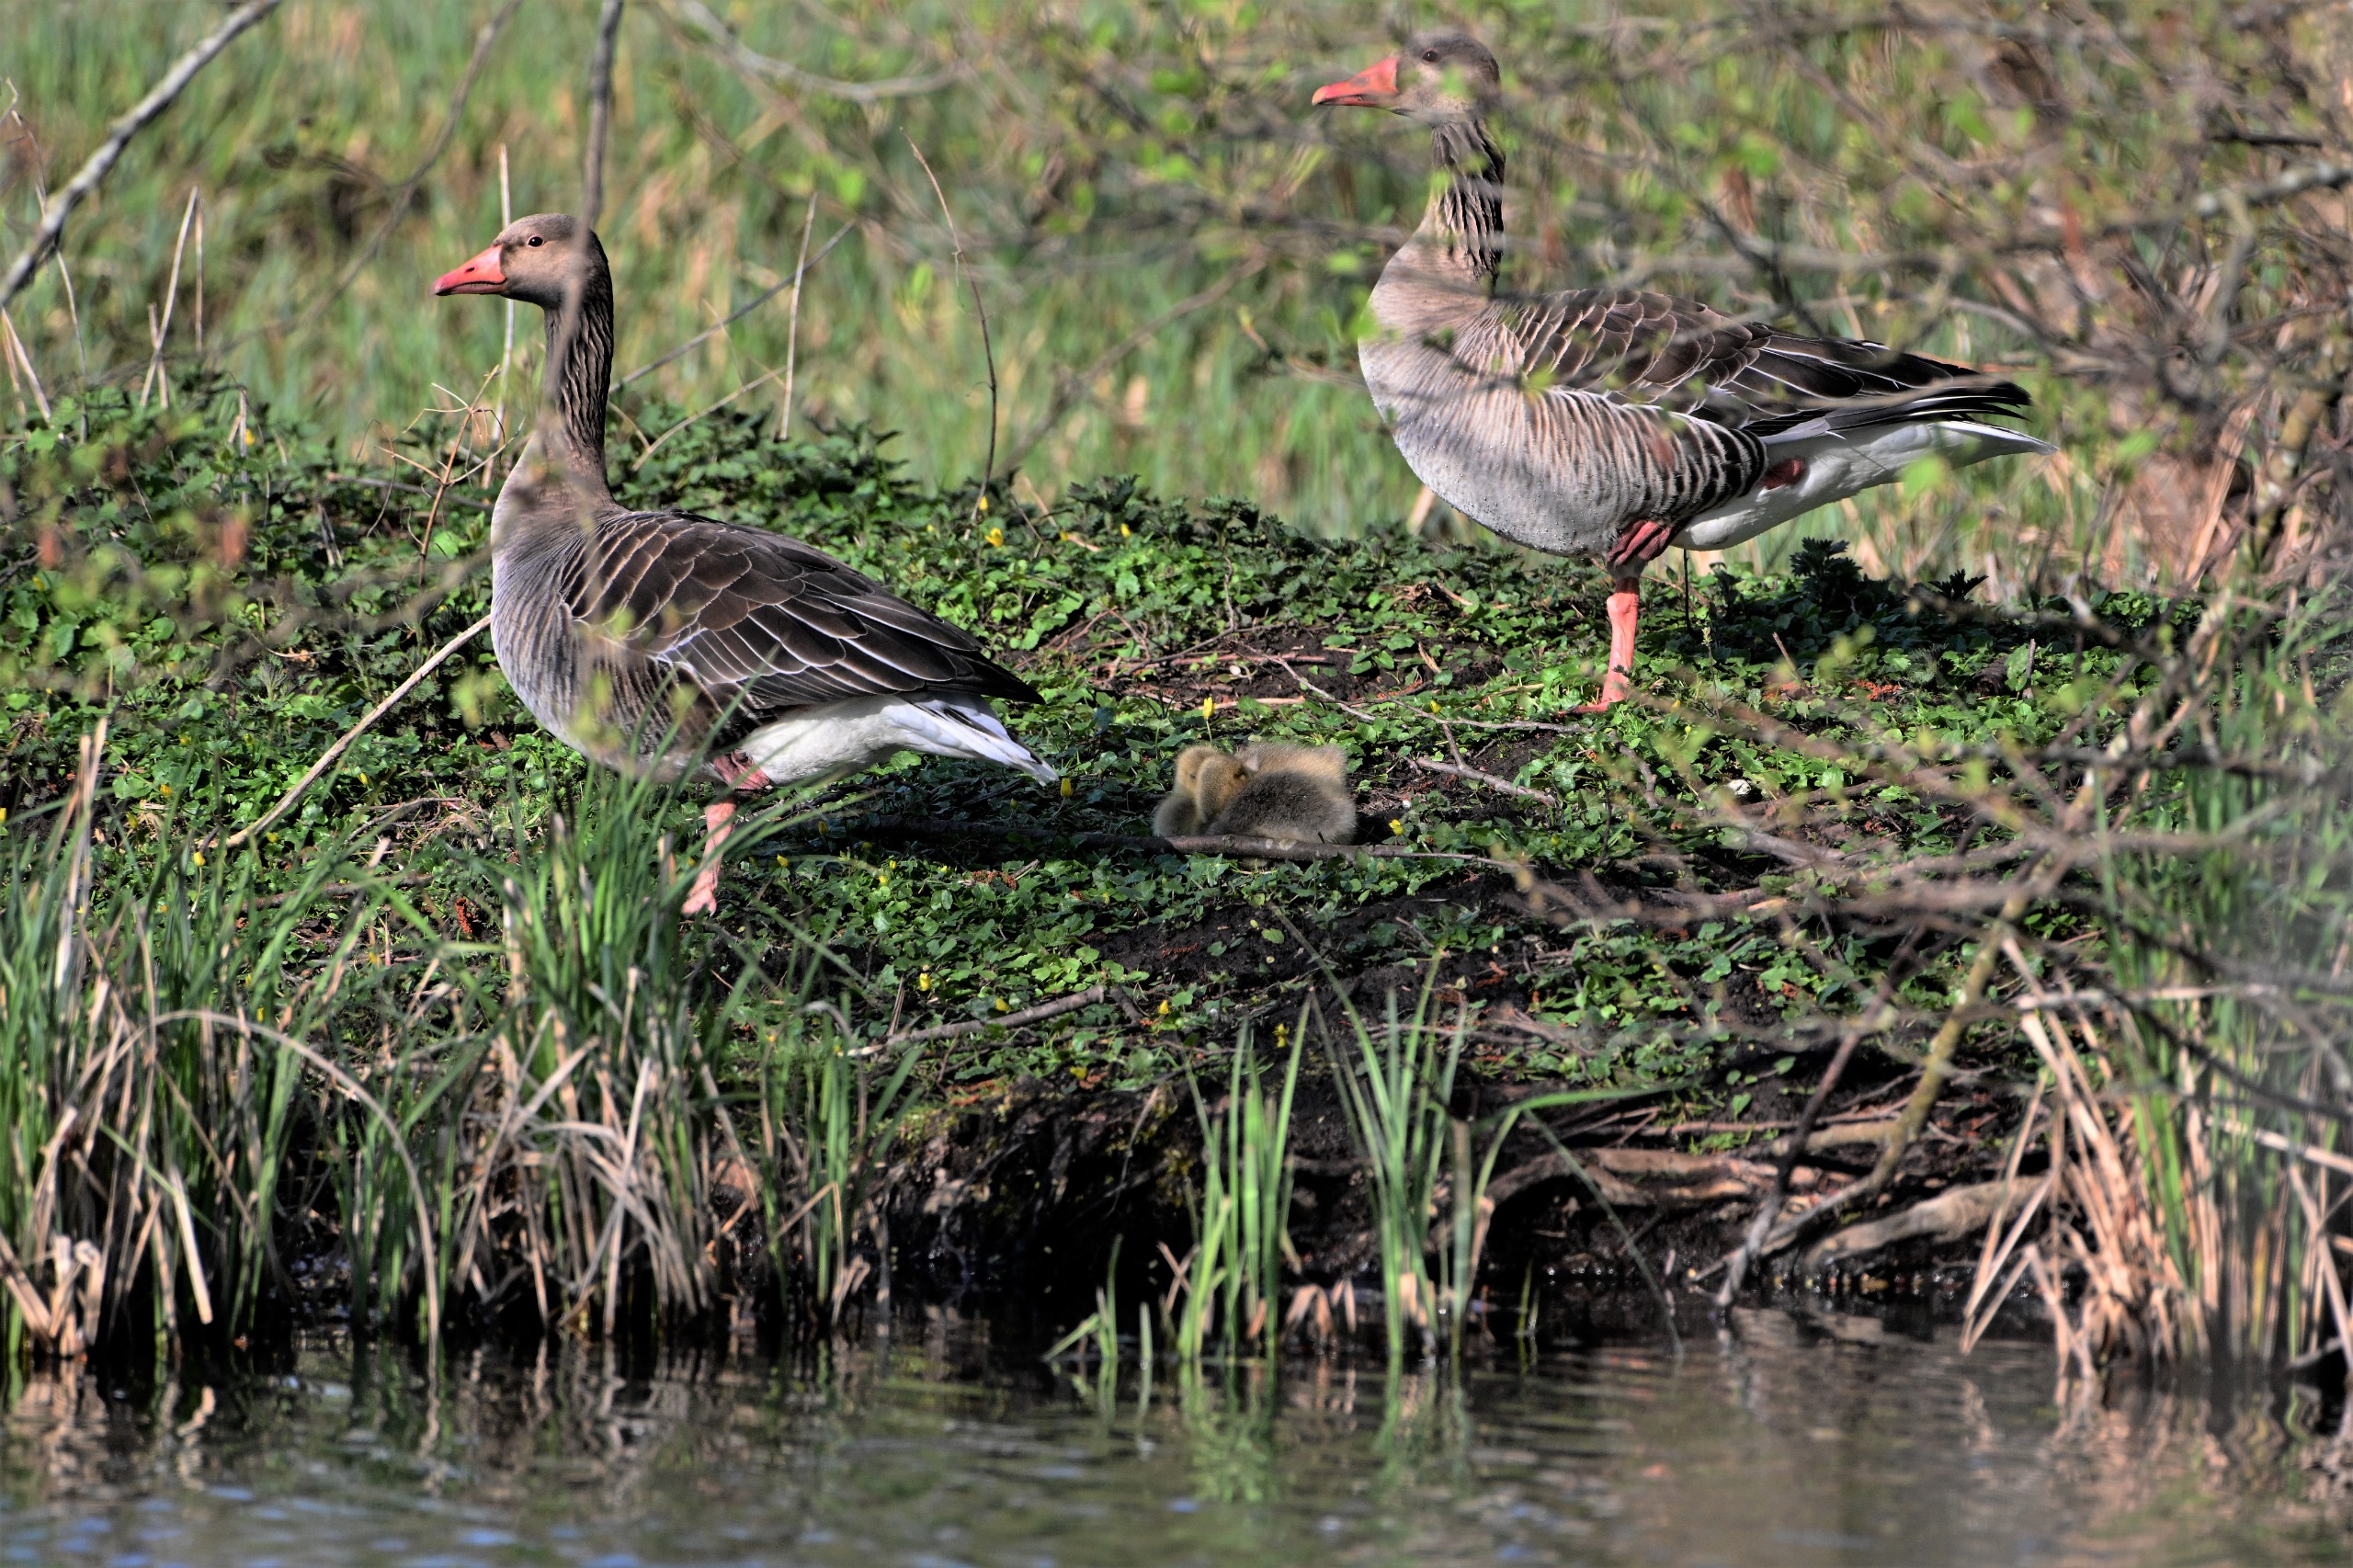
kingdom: Animalia
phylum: Chordata
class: Aves
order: Anseriformes
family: Anatidae
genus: Anser
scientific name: Anser anser
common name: Grågås
